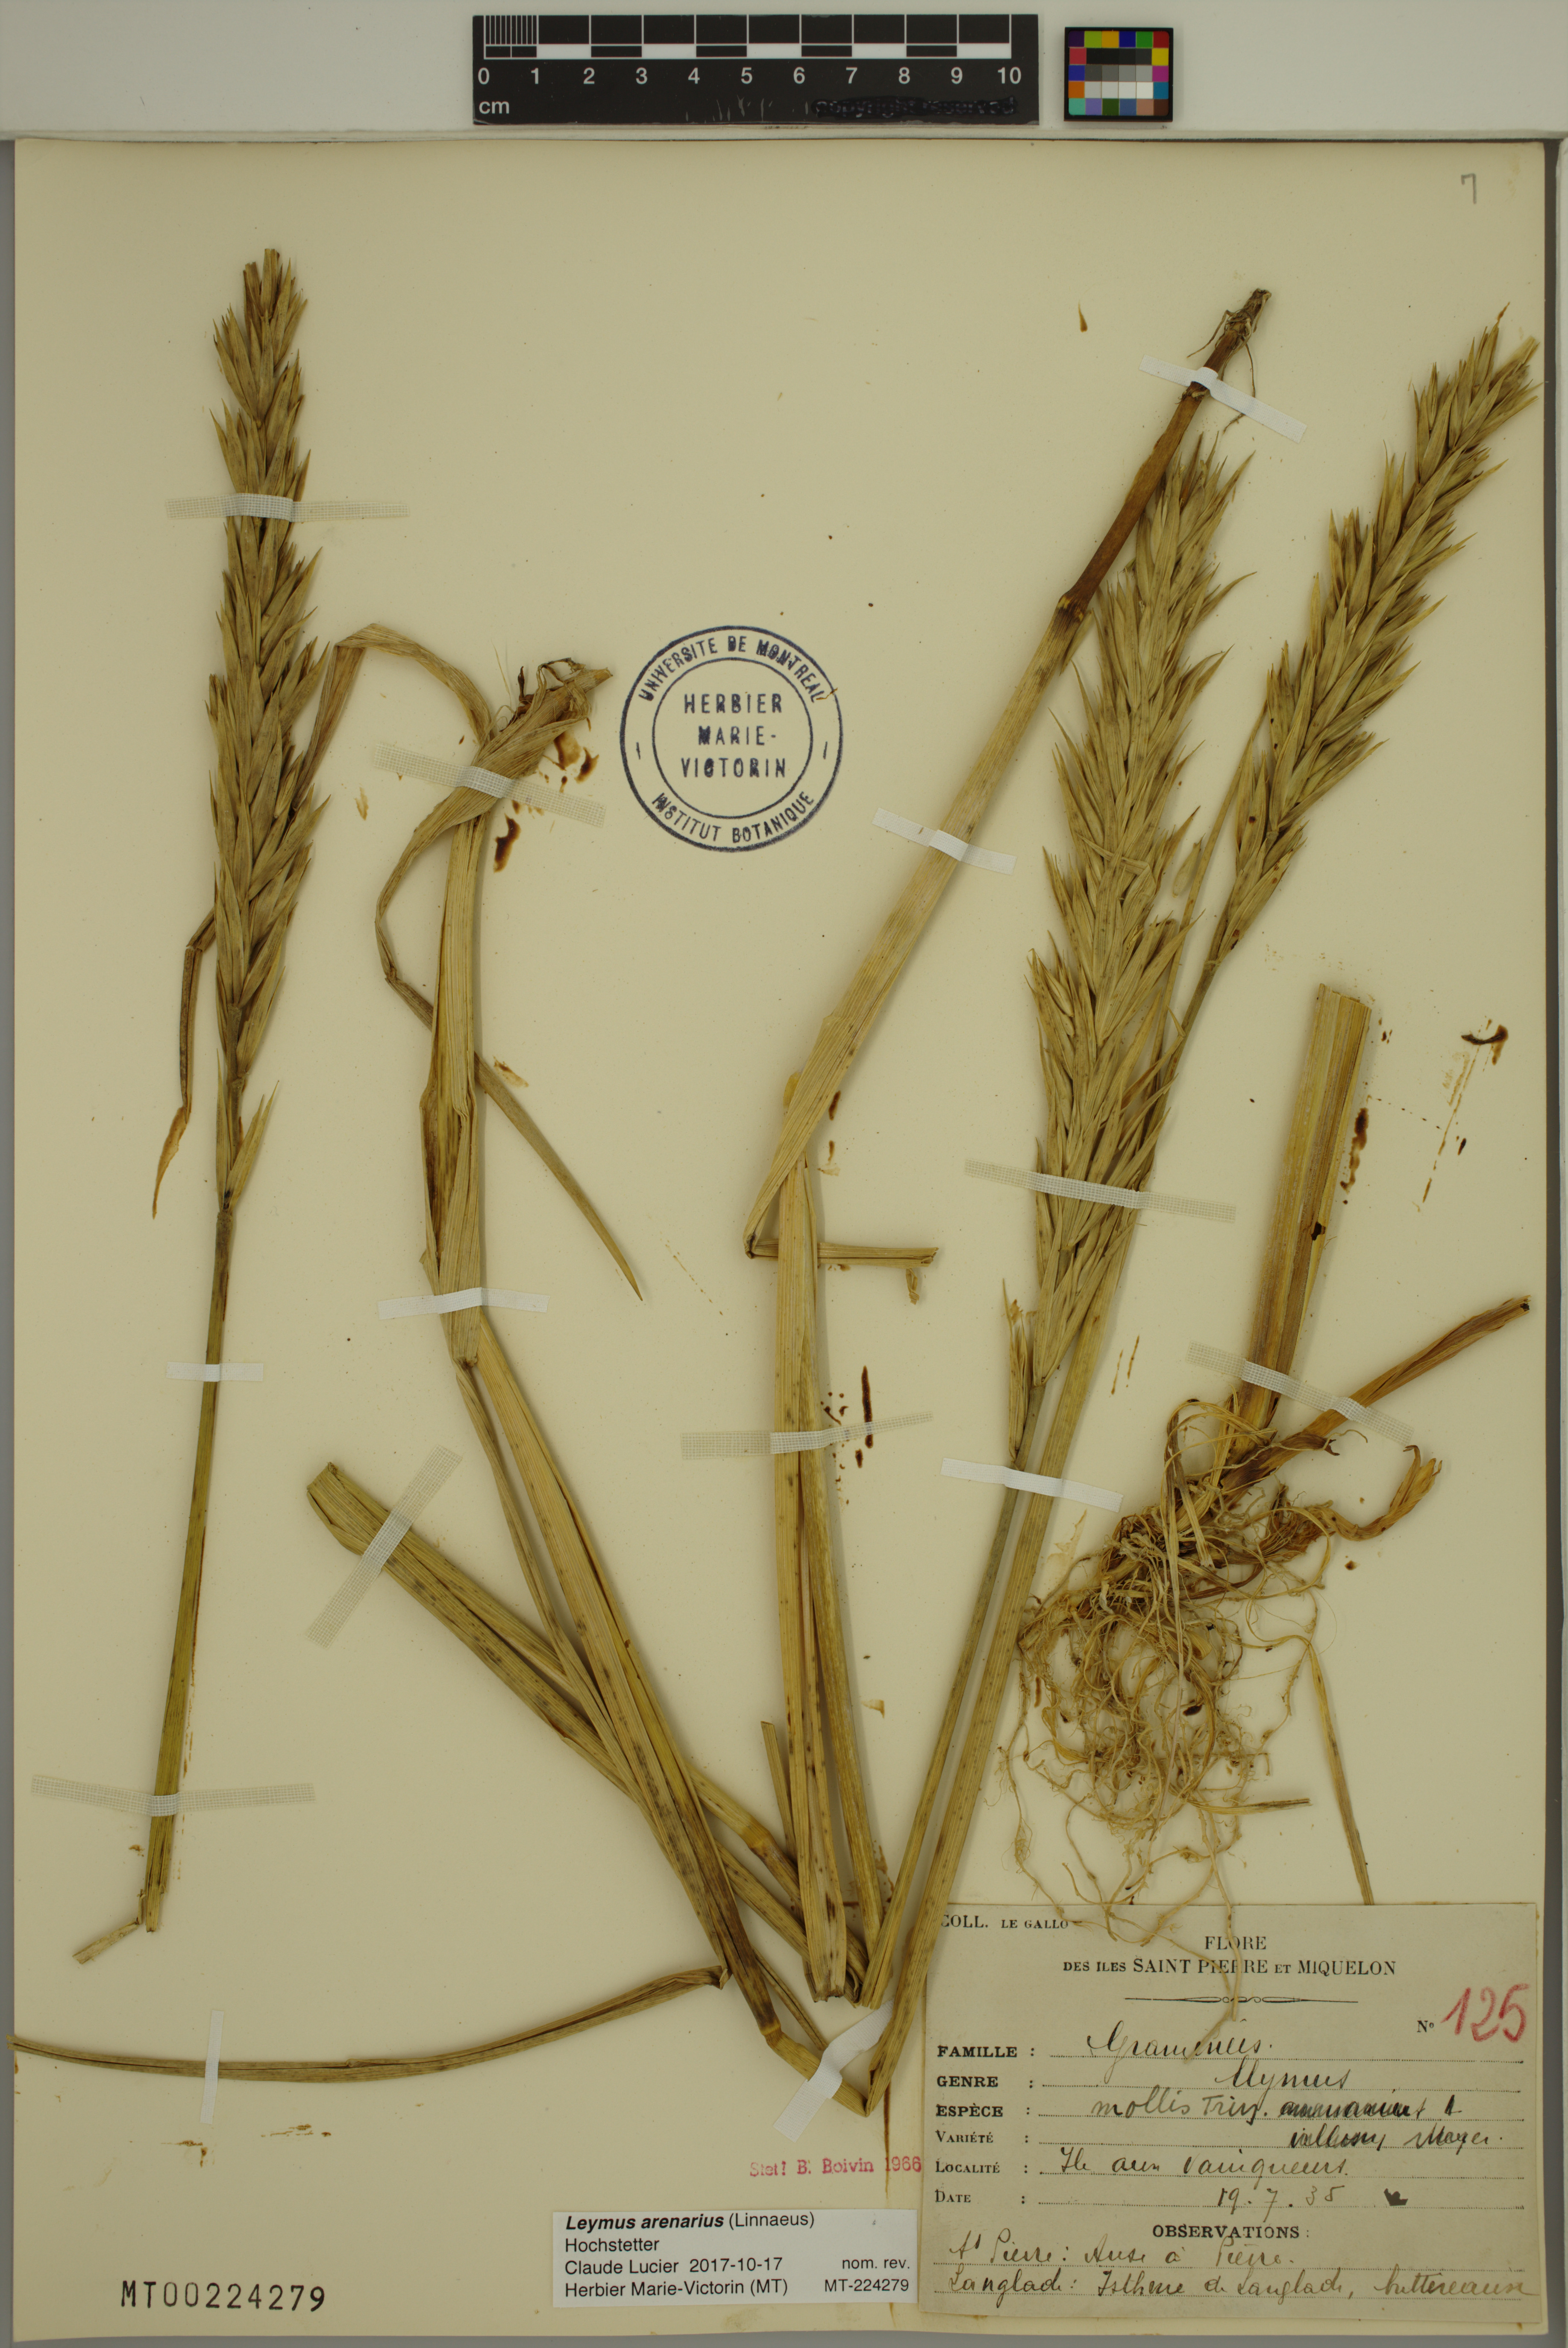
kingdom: Plantae
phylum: Tracheophyta
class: Liliopsida
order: Poales
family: Poaceae
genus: Leymus
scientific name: Leymus arenarius
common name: Lyme-grass
